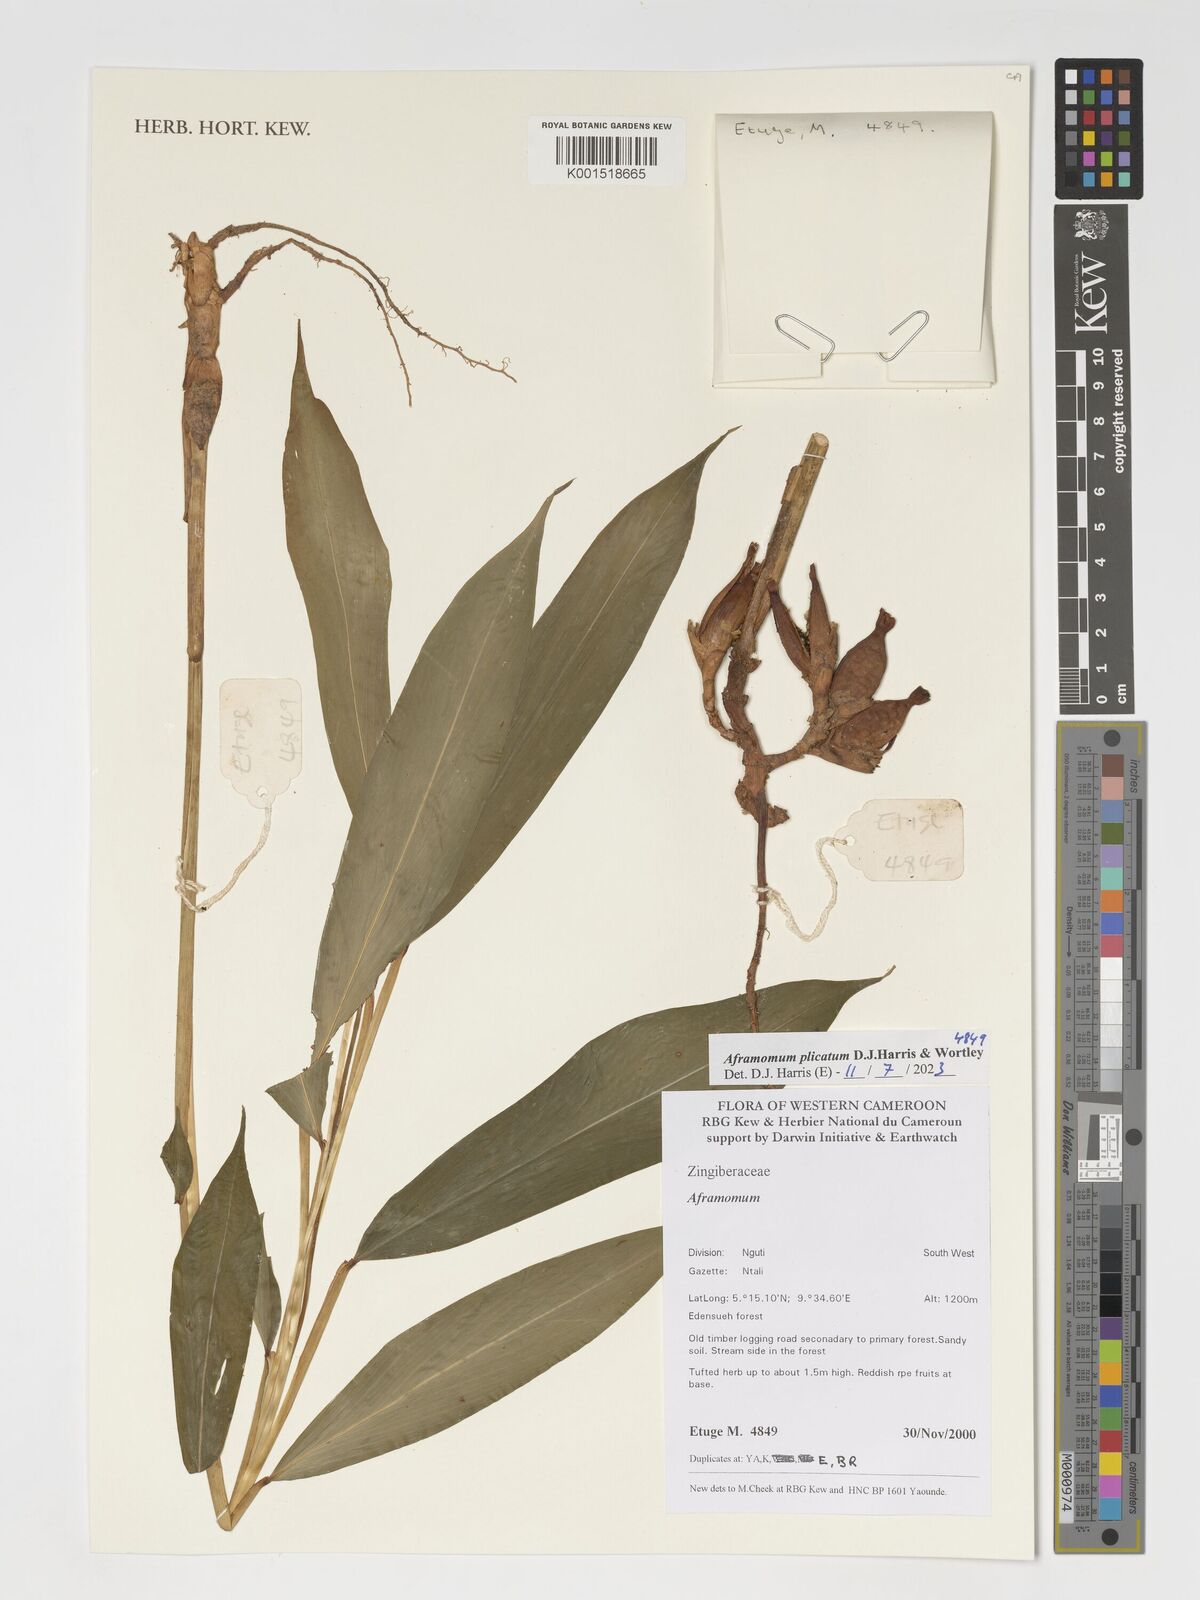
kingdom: Plantae
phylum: Tracheophyta
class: Liliopsida
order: Zingiberales
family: Zingiberaceae
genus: Aframomum
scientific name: Aframomum plicatum
